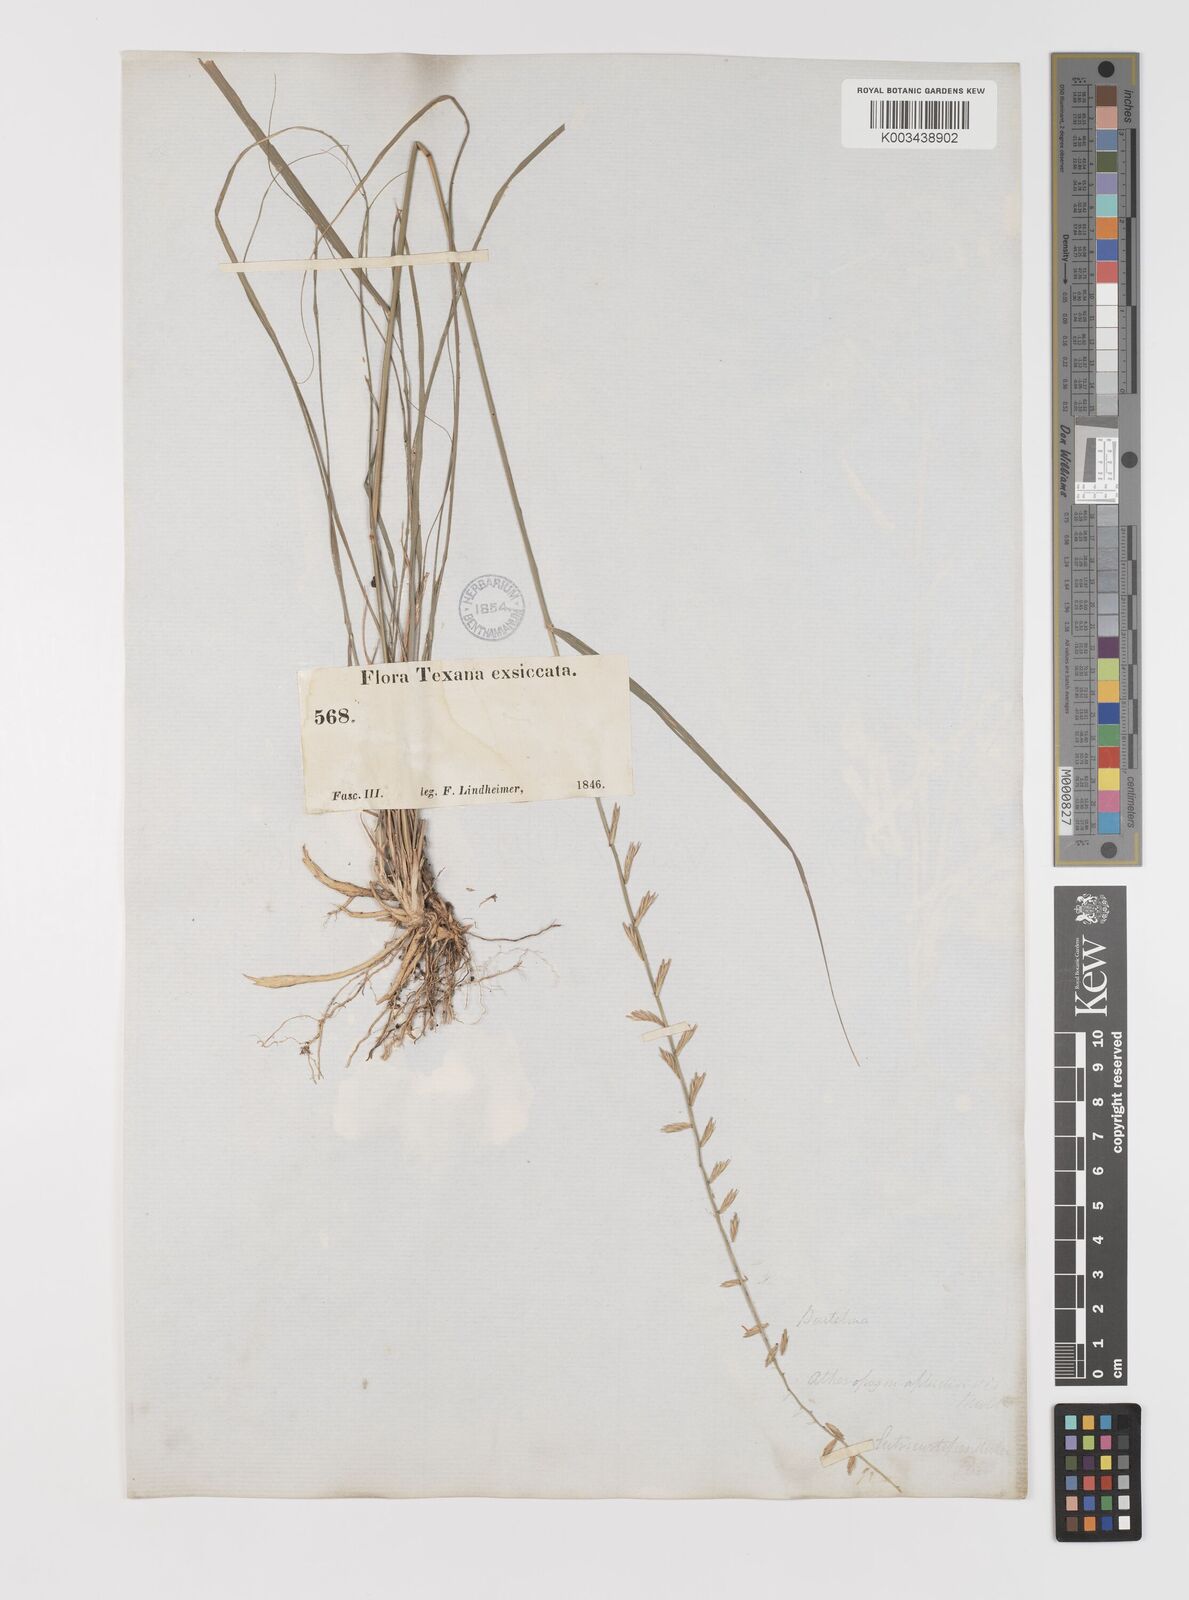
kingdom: Plantae
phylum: Tracheophyta
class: Liliopsida
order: Poales
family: Poaceae
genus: Bouteloua
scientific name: Bouteloua curtipendula
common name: Side-oats grama
